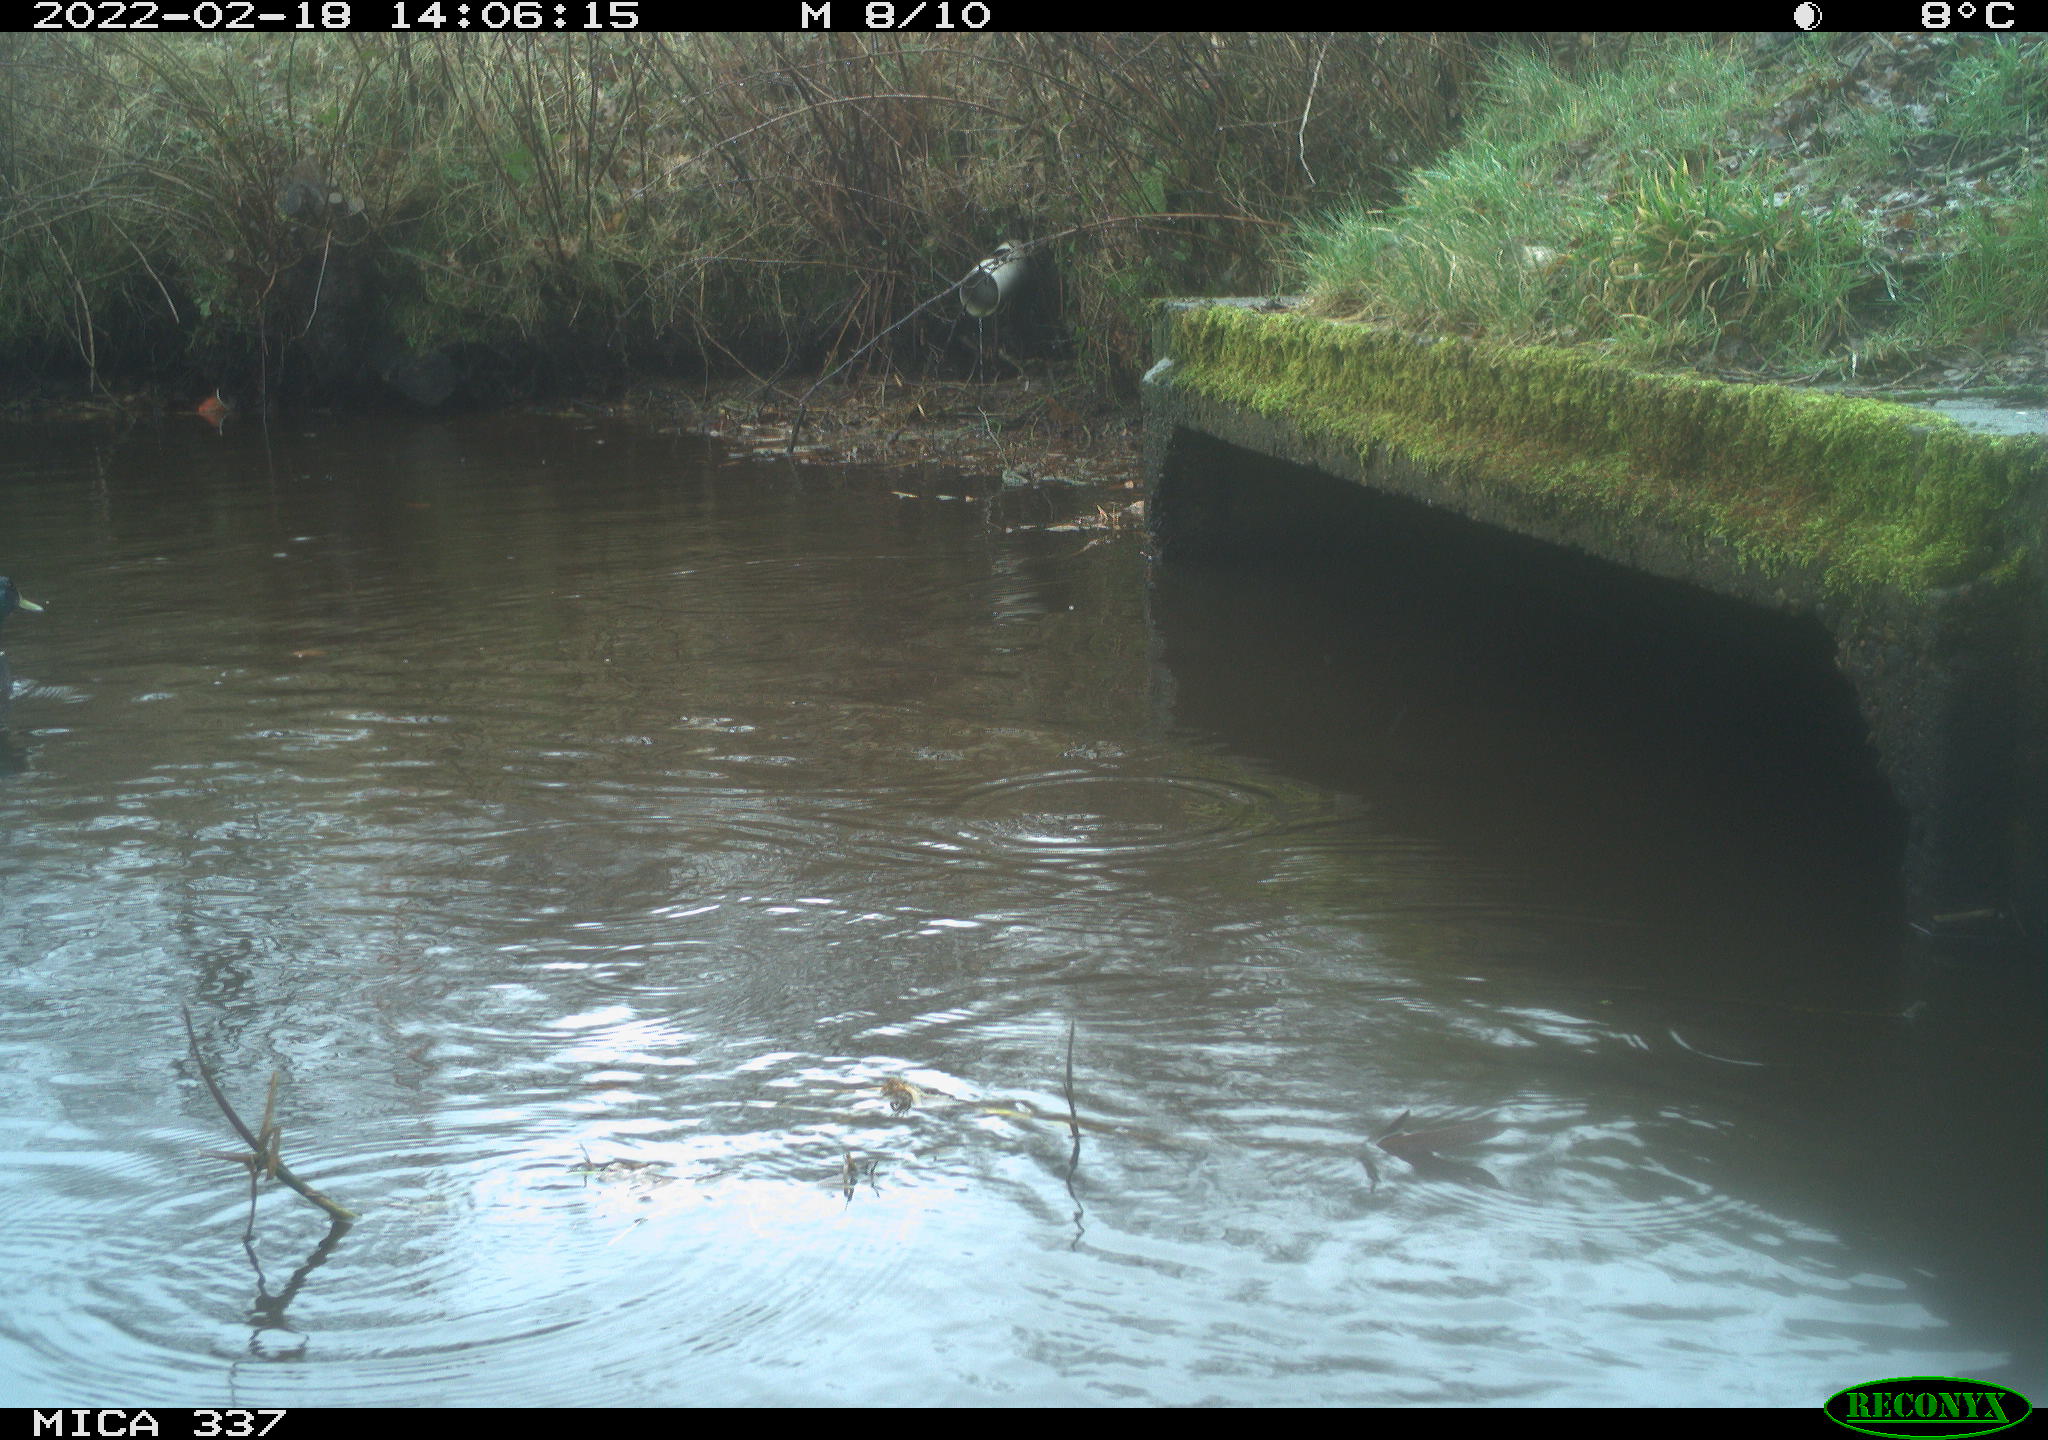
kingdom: Animalia
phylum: Chordata
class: Aves
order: Anseriformes
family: Anatidae
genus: Anas
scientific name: Anas platyrhynchos
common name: Mallard
